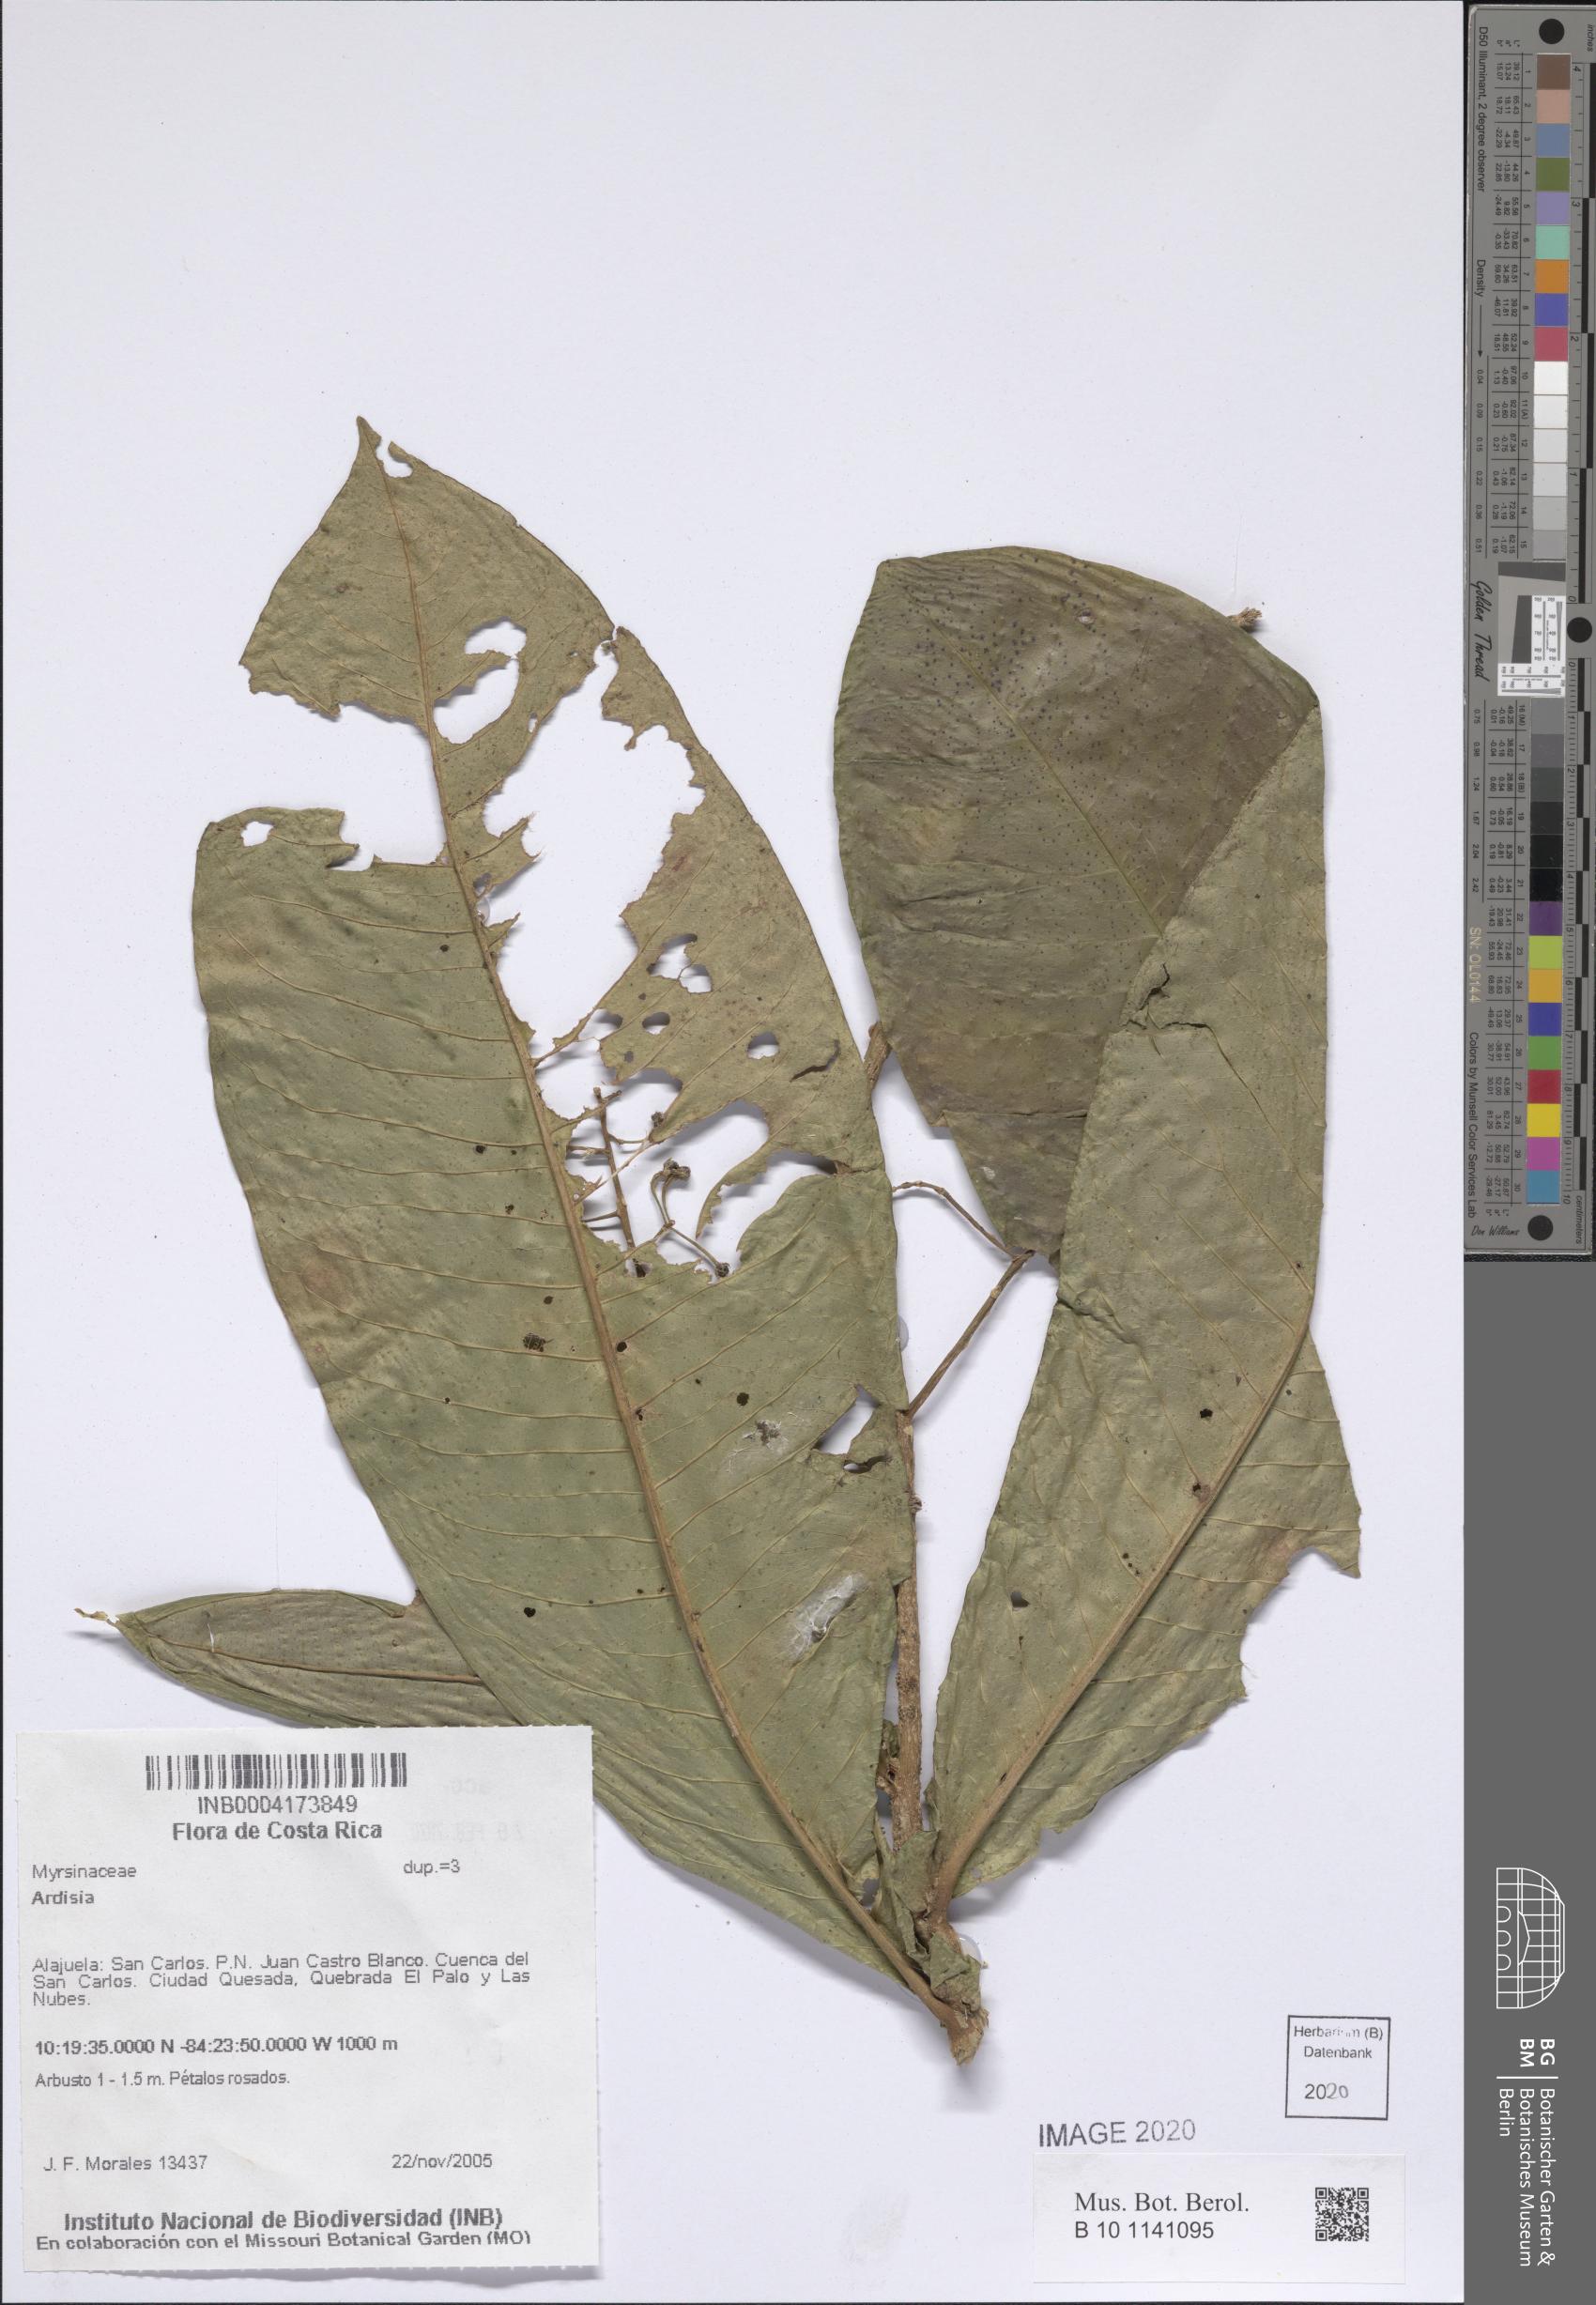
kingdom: Plantae
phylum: Tracheophyta
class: Magnoliopsida
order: Ericales
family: Primulaceae
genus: Ardisia
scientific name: Ardisia
